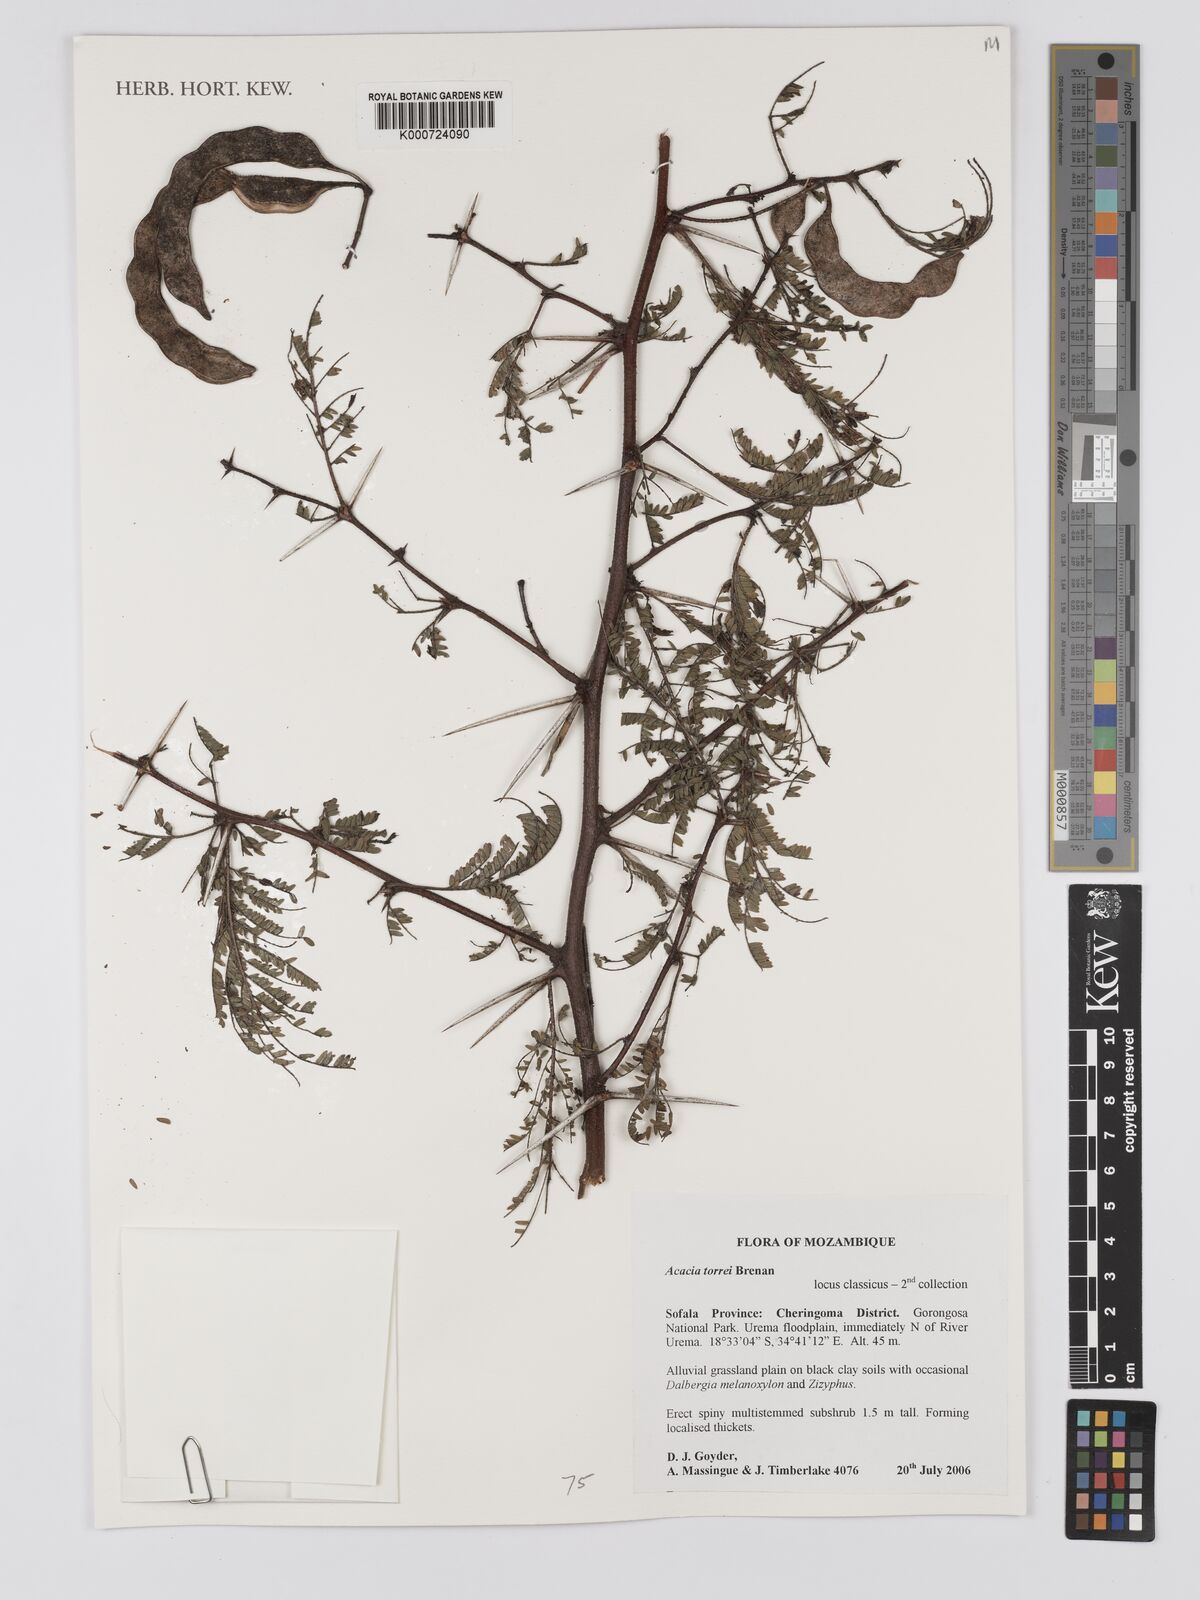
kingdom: Plantae
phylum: Tracheophyta
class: Magnoliopsida
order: Fabales
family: Fabaceae
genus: Vachellia
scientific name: Vachellia torrei
